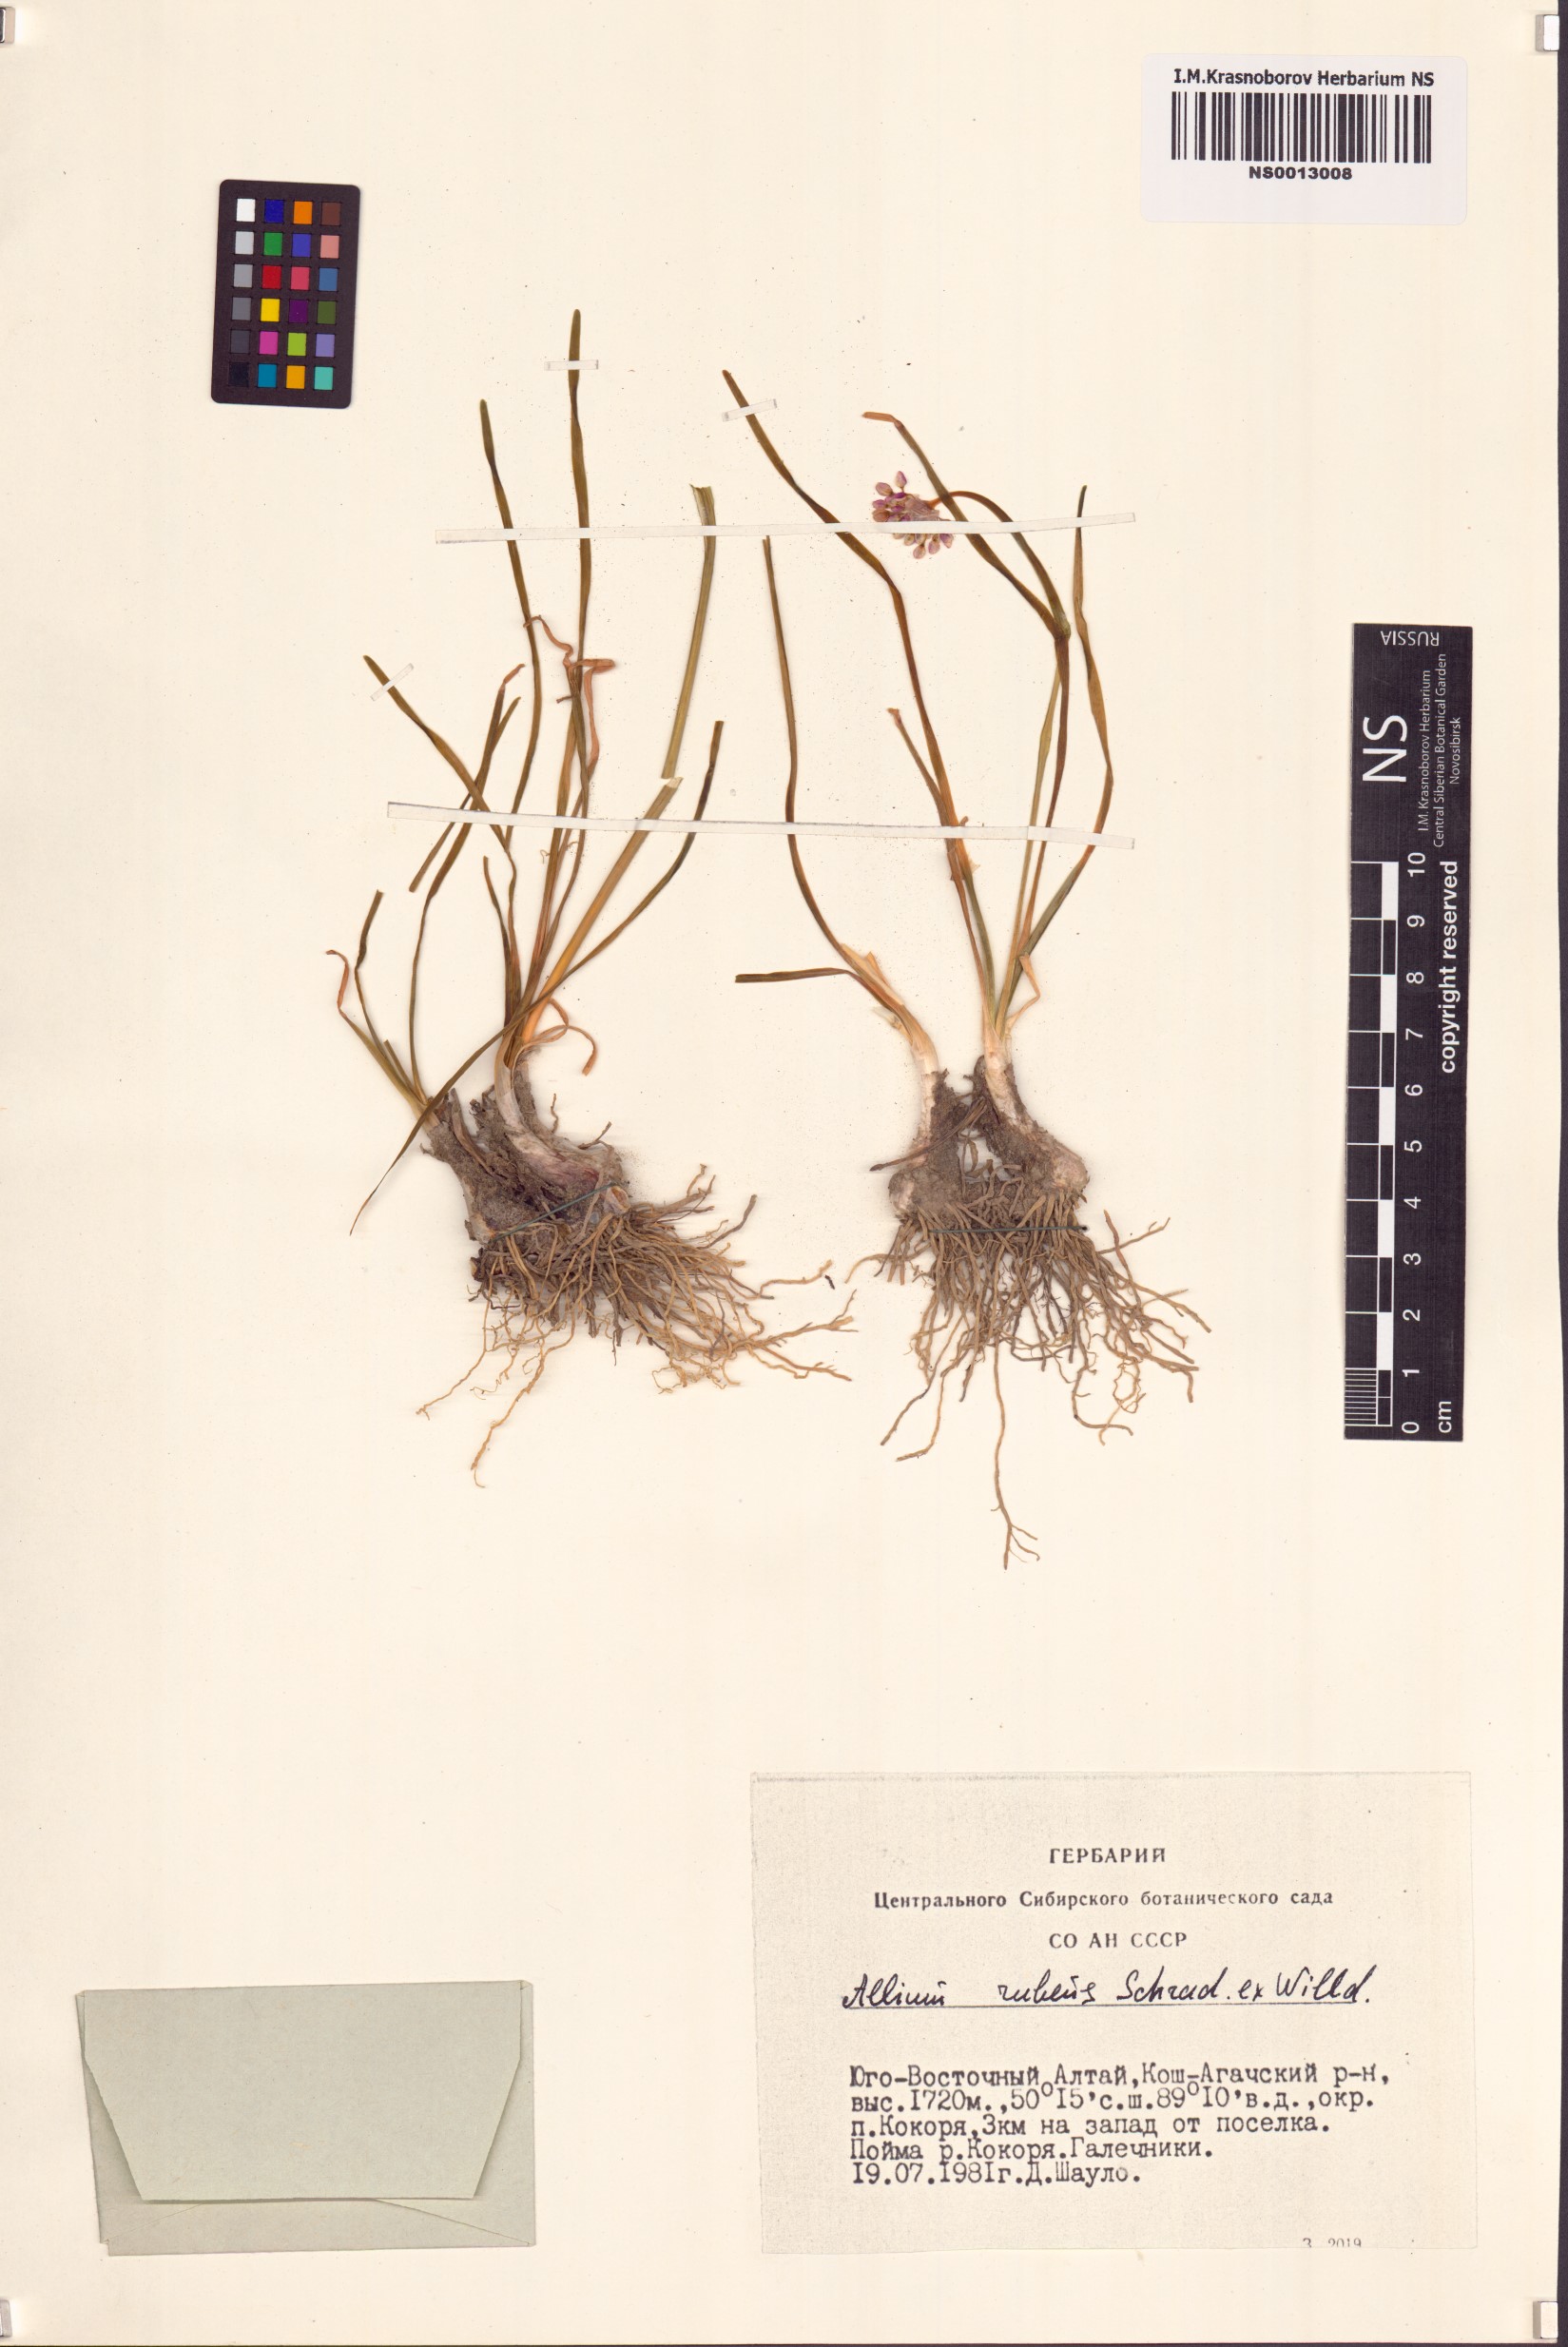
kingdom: Plantae
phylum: Tracheophyta
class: Liliopsida
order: Asparagales
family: Amaryllidaceae
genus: Allium
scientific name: Allium rubens
